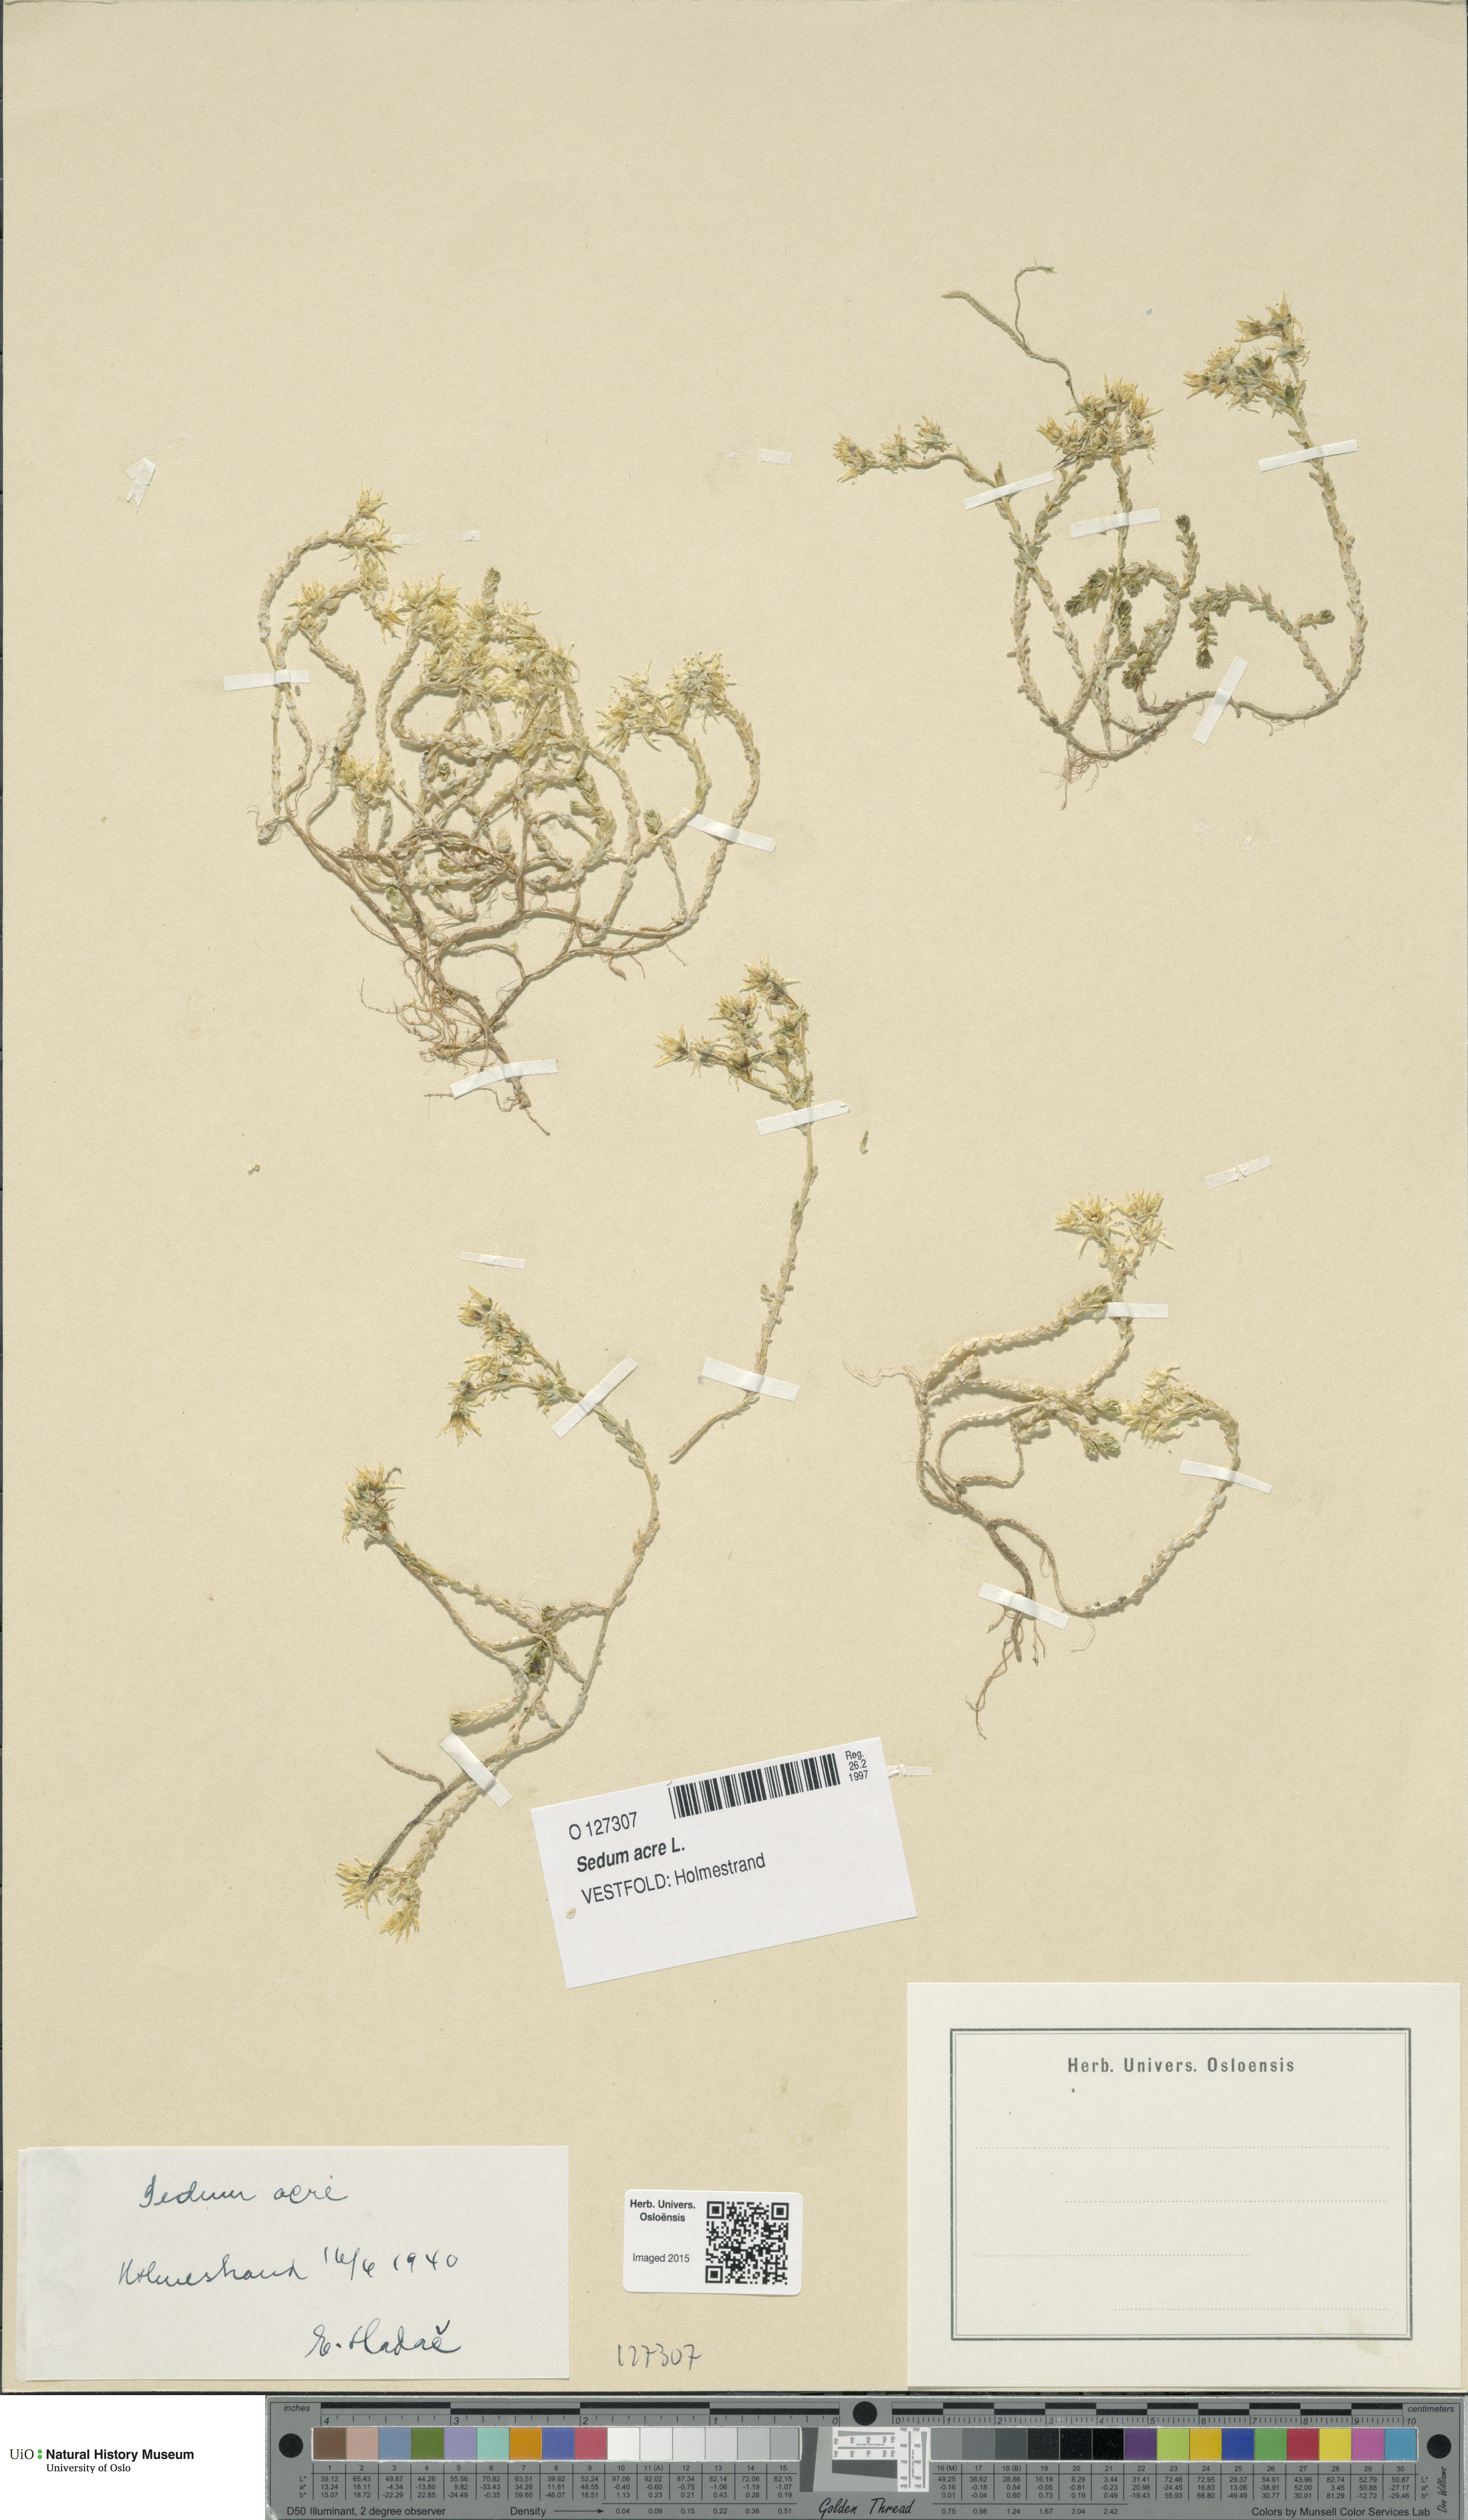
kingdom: Plantae
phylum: Tracheophyta
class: Magnoliopsida
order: Saxifragales
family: Crassulaceae
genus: Sedum
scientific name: Sedum acre
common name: Biting stonecrop
